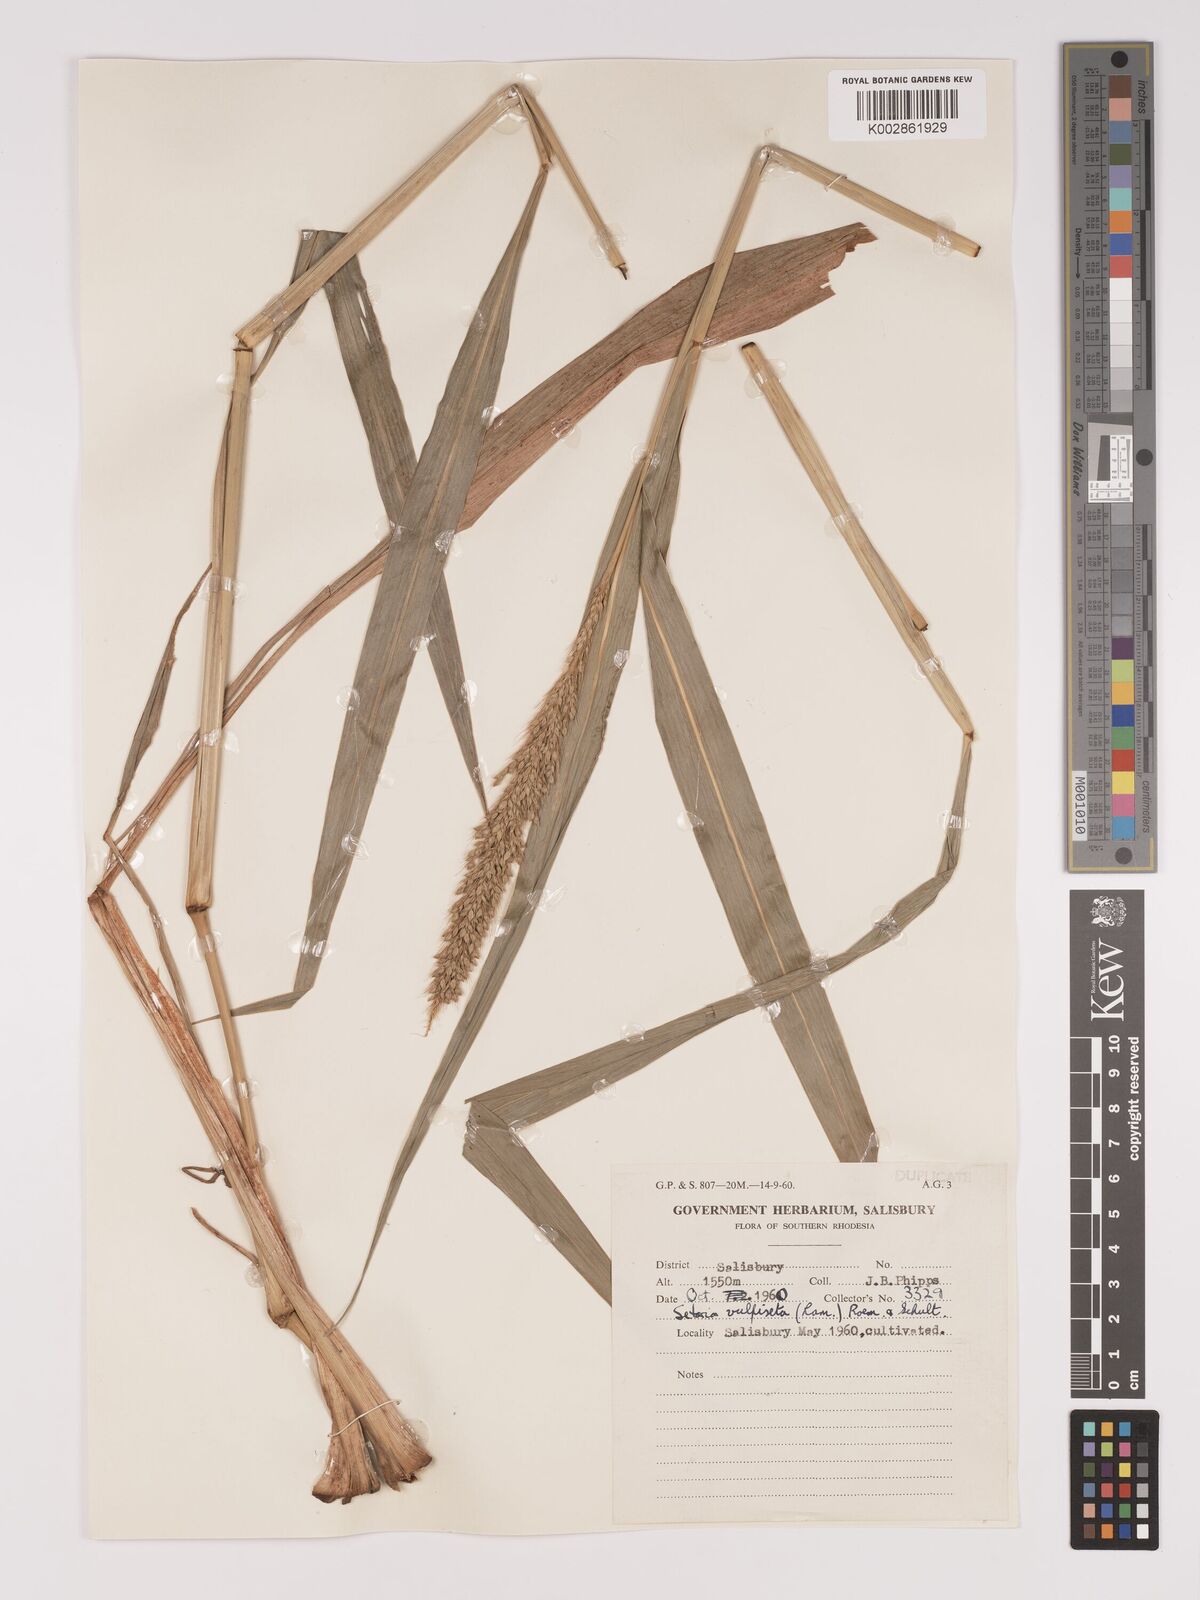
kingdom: Plantae
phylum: Tracheophyta
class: Liliopsida
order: Poales
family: Poaceae
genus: Setaria
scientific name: Setaria vulpiseta
